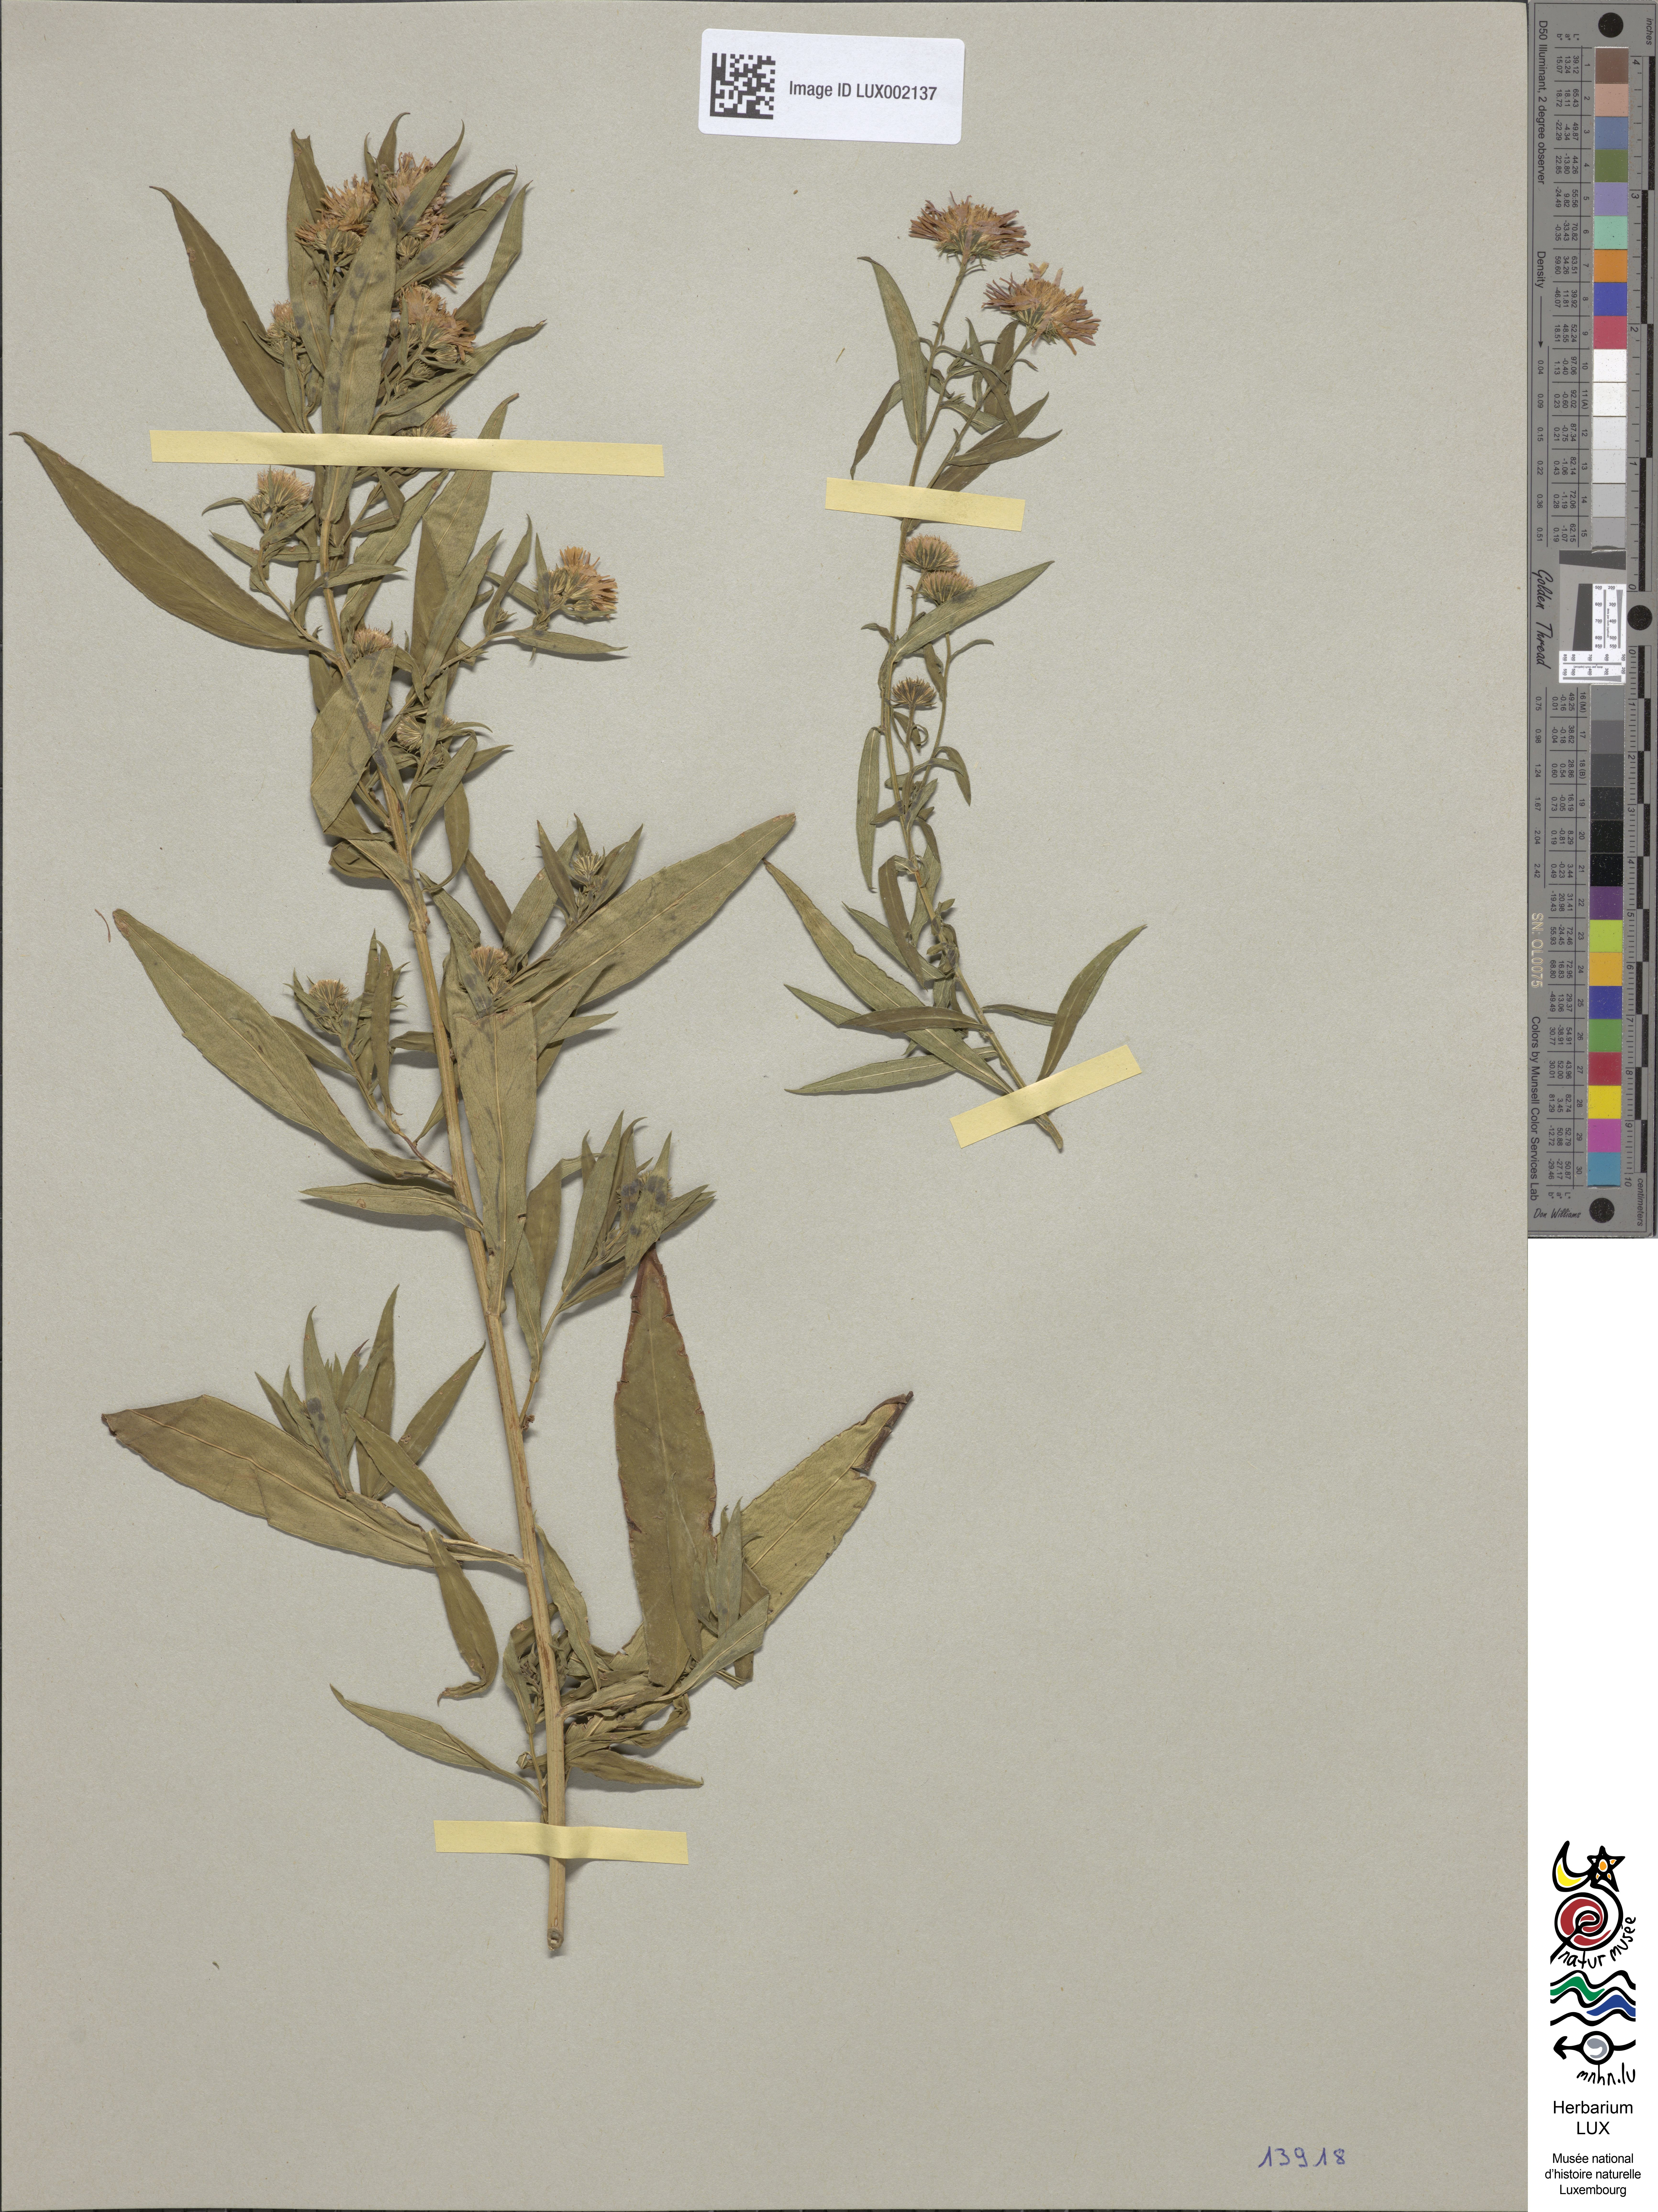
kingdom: Plantae
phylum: Tracheophyta
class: Magnoliopsida
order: Asterales
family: Asteraceae
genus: Symphyotrichum
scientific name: Symphyotrichum salignum
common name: Common michaelmas daisy
